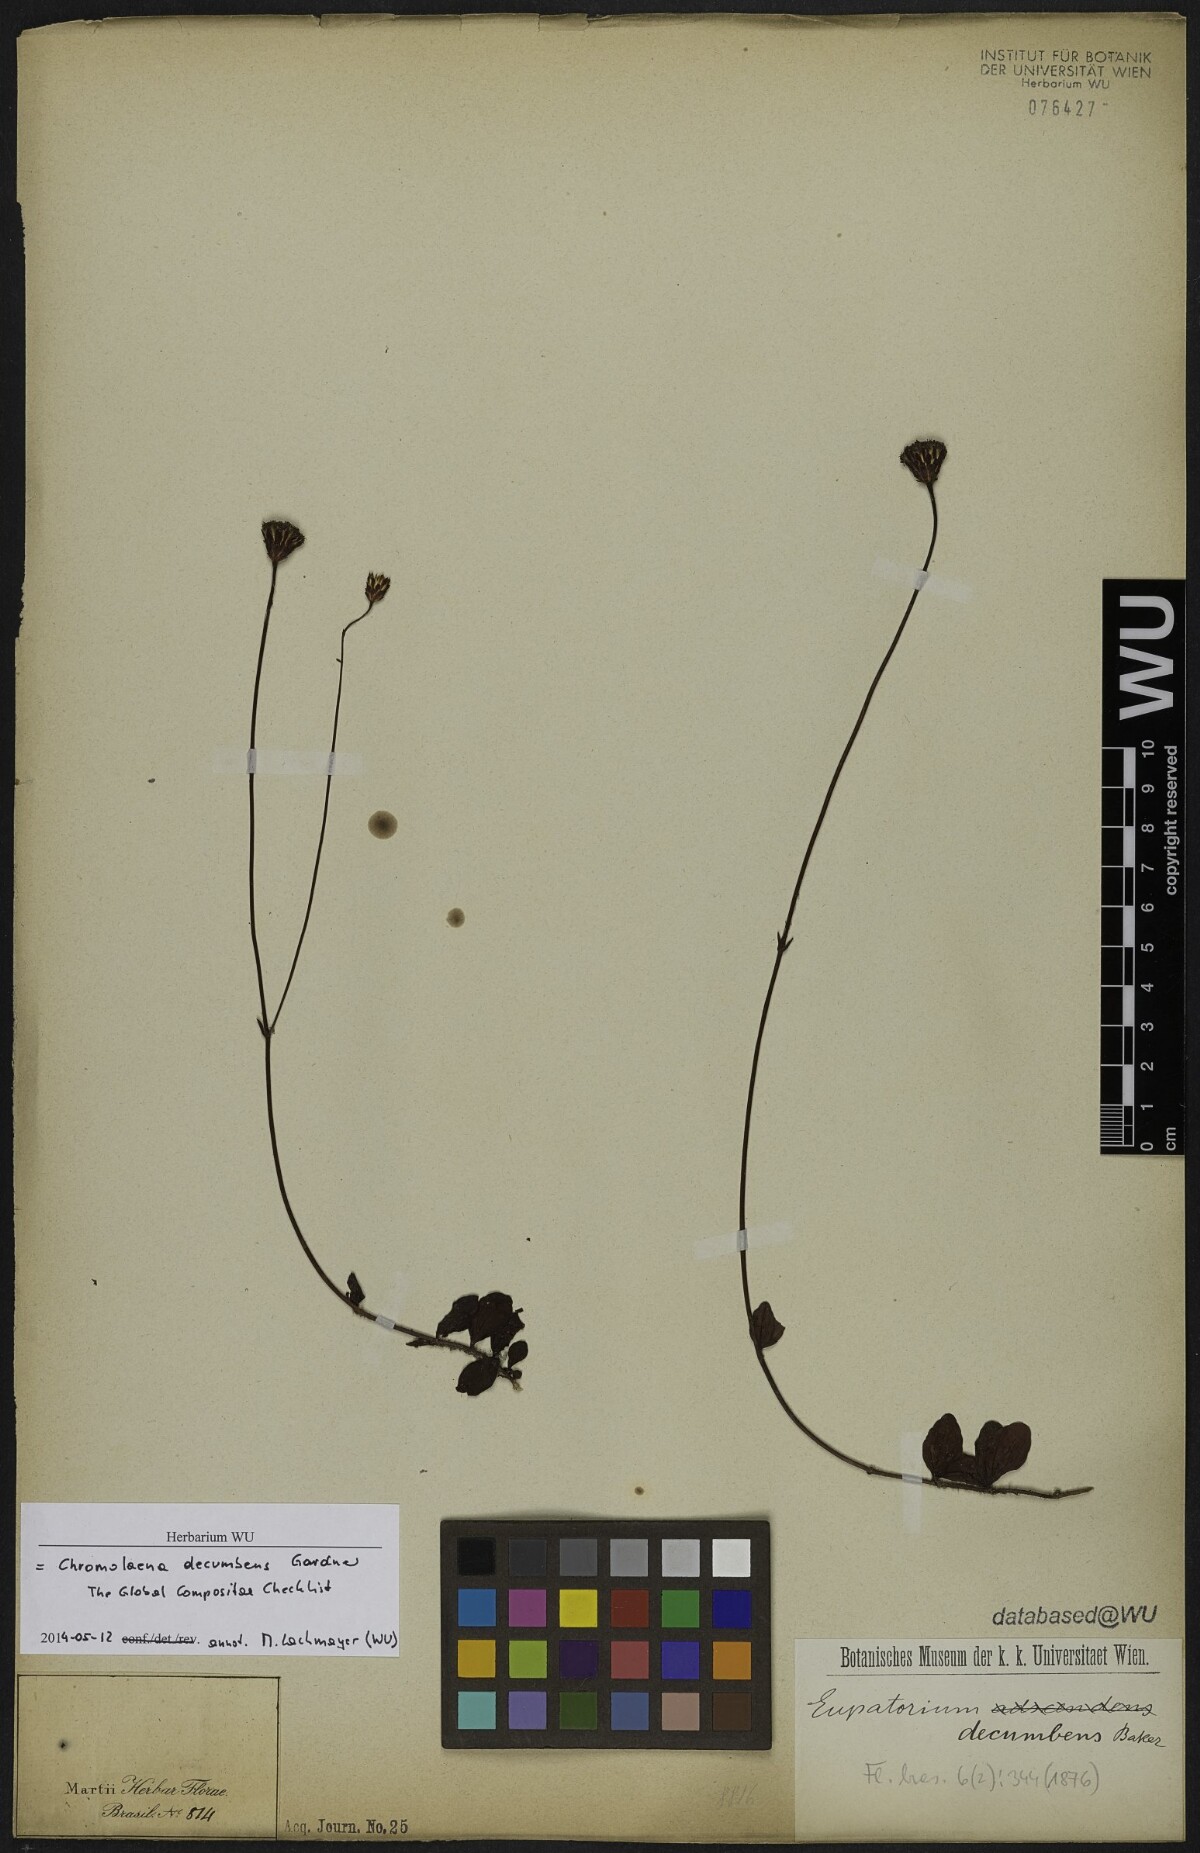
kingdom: Plantae
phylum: Tracheophyta
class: Magnoliopsida
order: Asterales
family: Asteraceae
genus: Praxelis
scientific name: Praxelis decumbens
